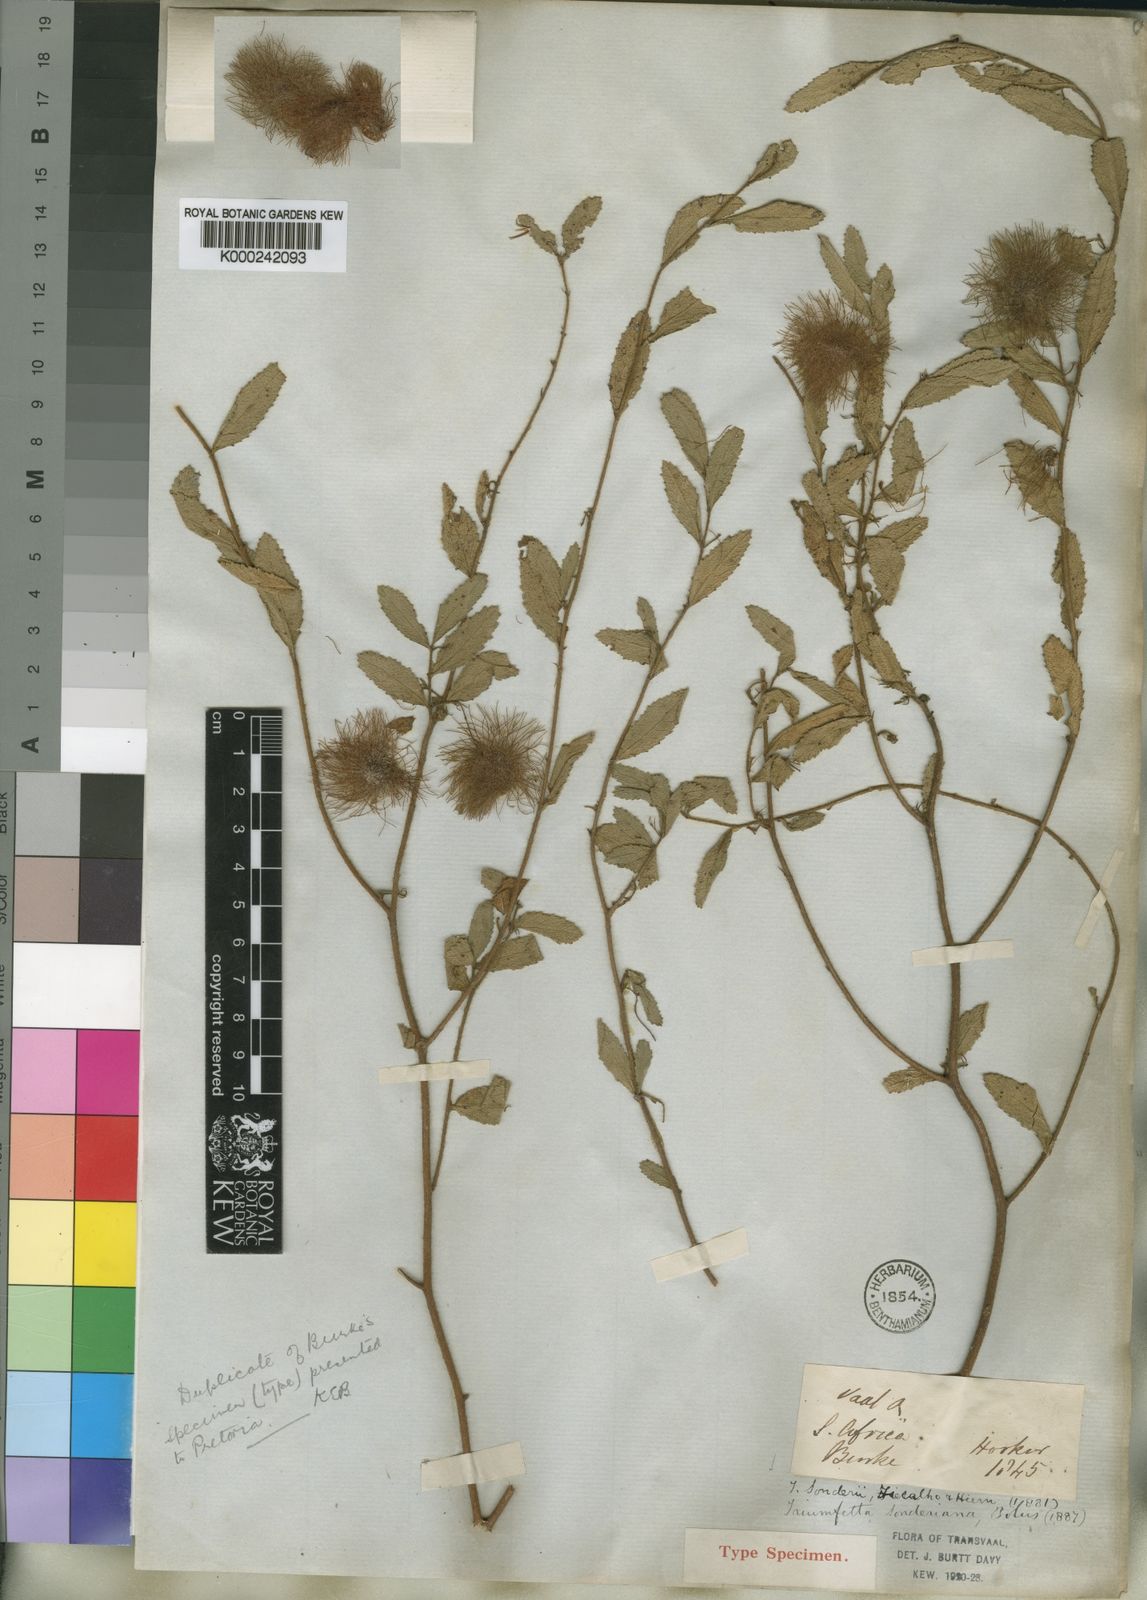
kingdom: Plantae
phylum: Tracheophyta
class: Magnoliopsida
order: Malvales
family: Malvaceae
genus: Triumfetta
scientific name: Triumfetta sonderi
